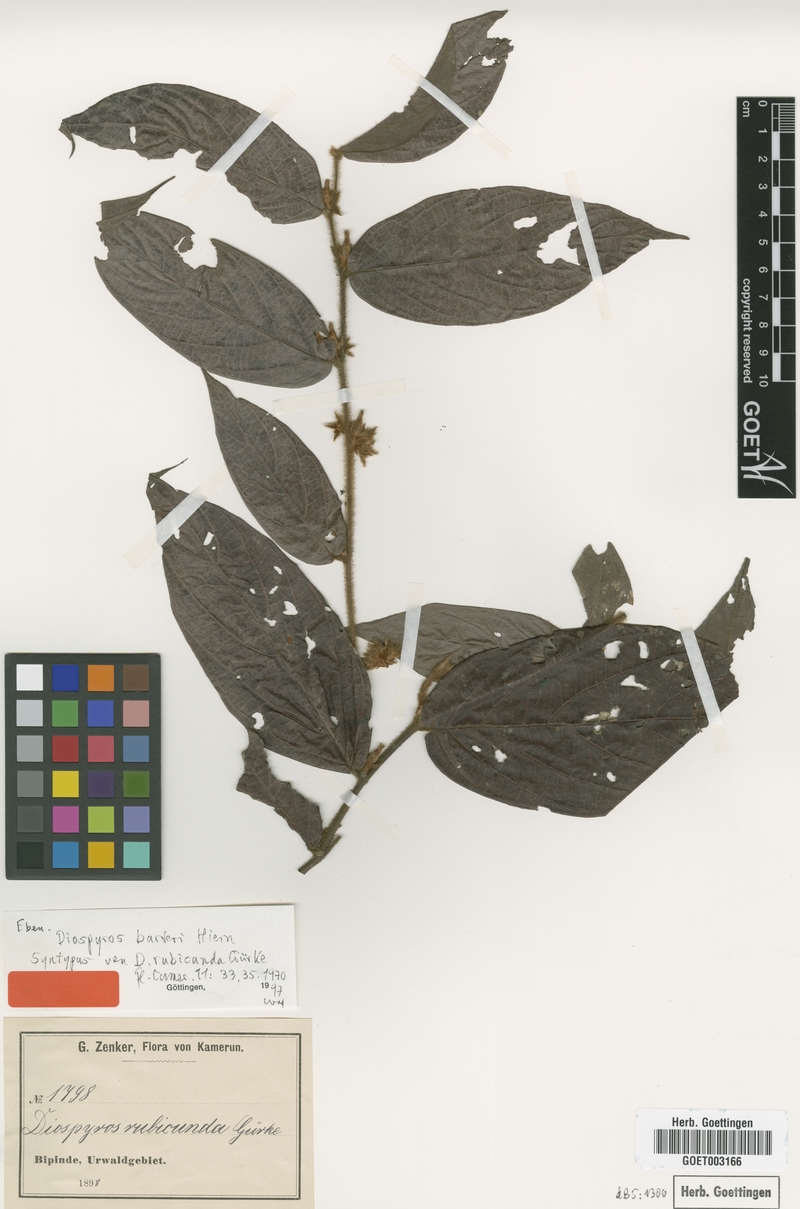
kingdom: Plantae
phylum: Tracheophyta
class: Magnoliopsida
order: Ericales
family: Ebenaceae
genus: Diospyros
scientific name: Diospyros barteri
